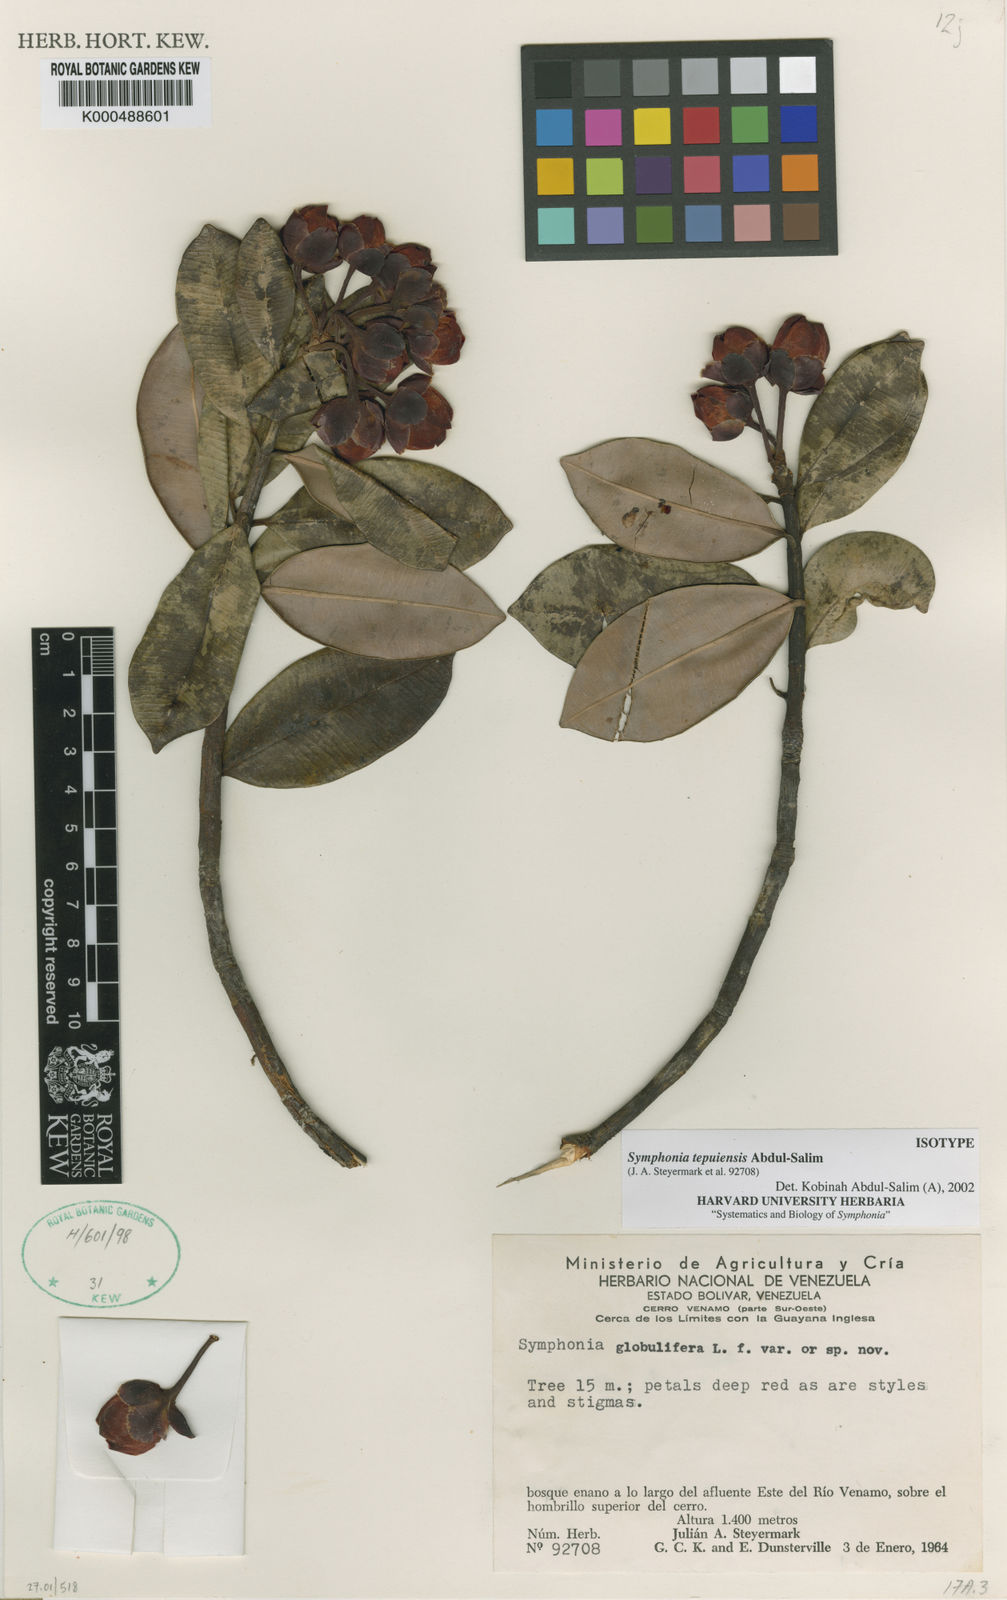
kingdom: Plantae
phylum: Tracheophyta
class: Magnoliopsida
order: Malpighiales
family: Clusiaceae
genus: Symphonia
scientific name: Symphonia globulifera
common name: Boarwood
